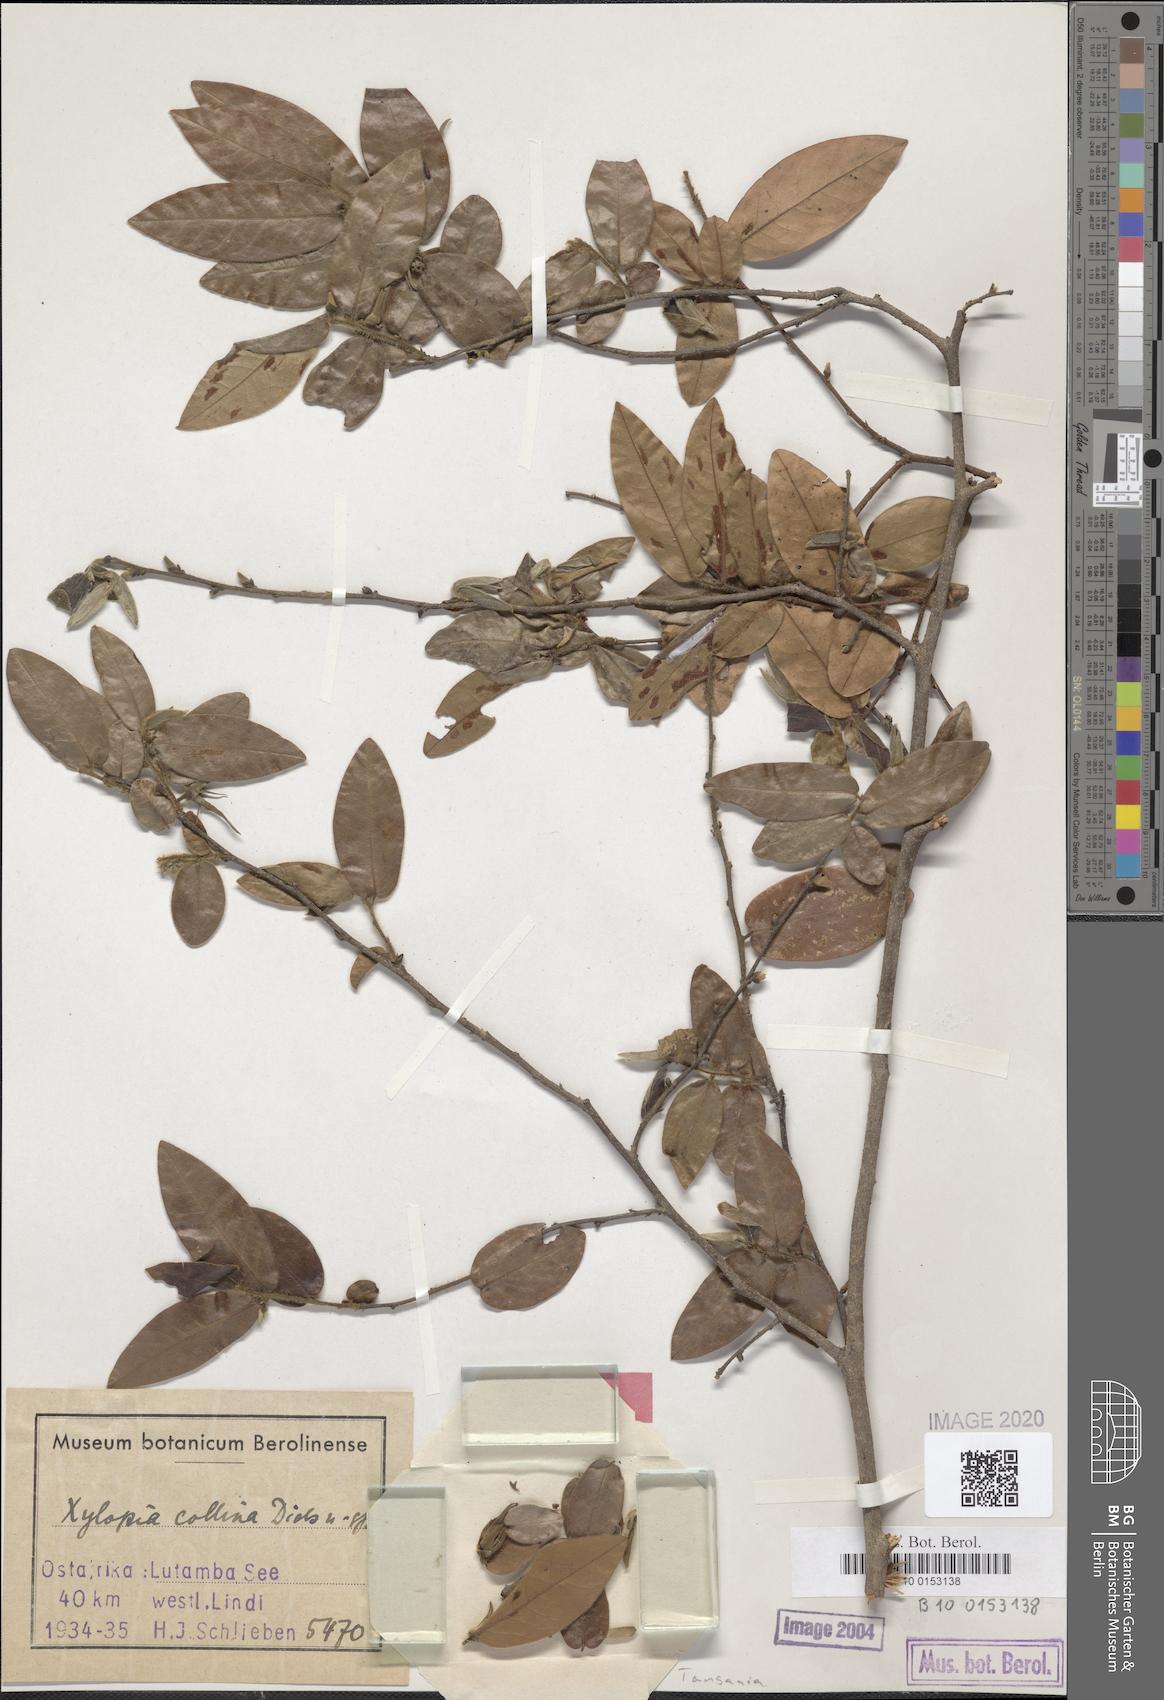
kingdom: Plantae
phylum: Tracheophyta
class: Magnoliopsida
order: Magnoliales
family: Annonaceae
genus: Xylopia
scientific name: Xylopia collina
